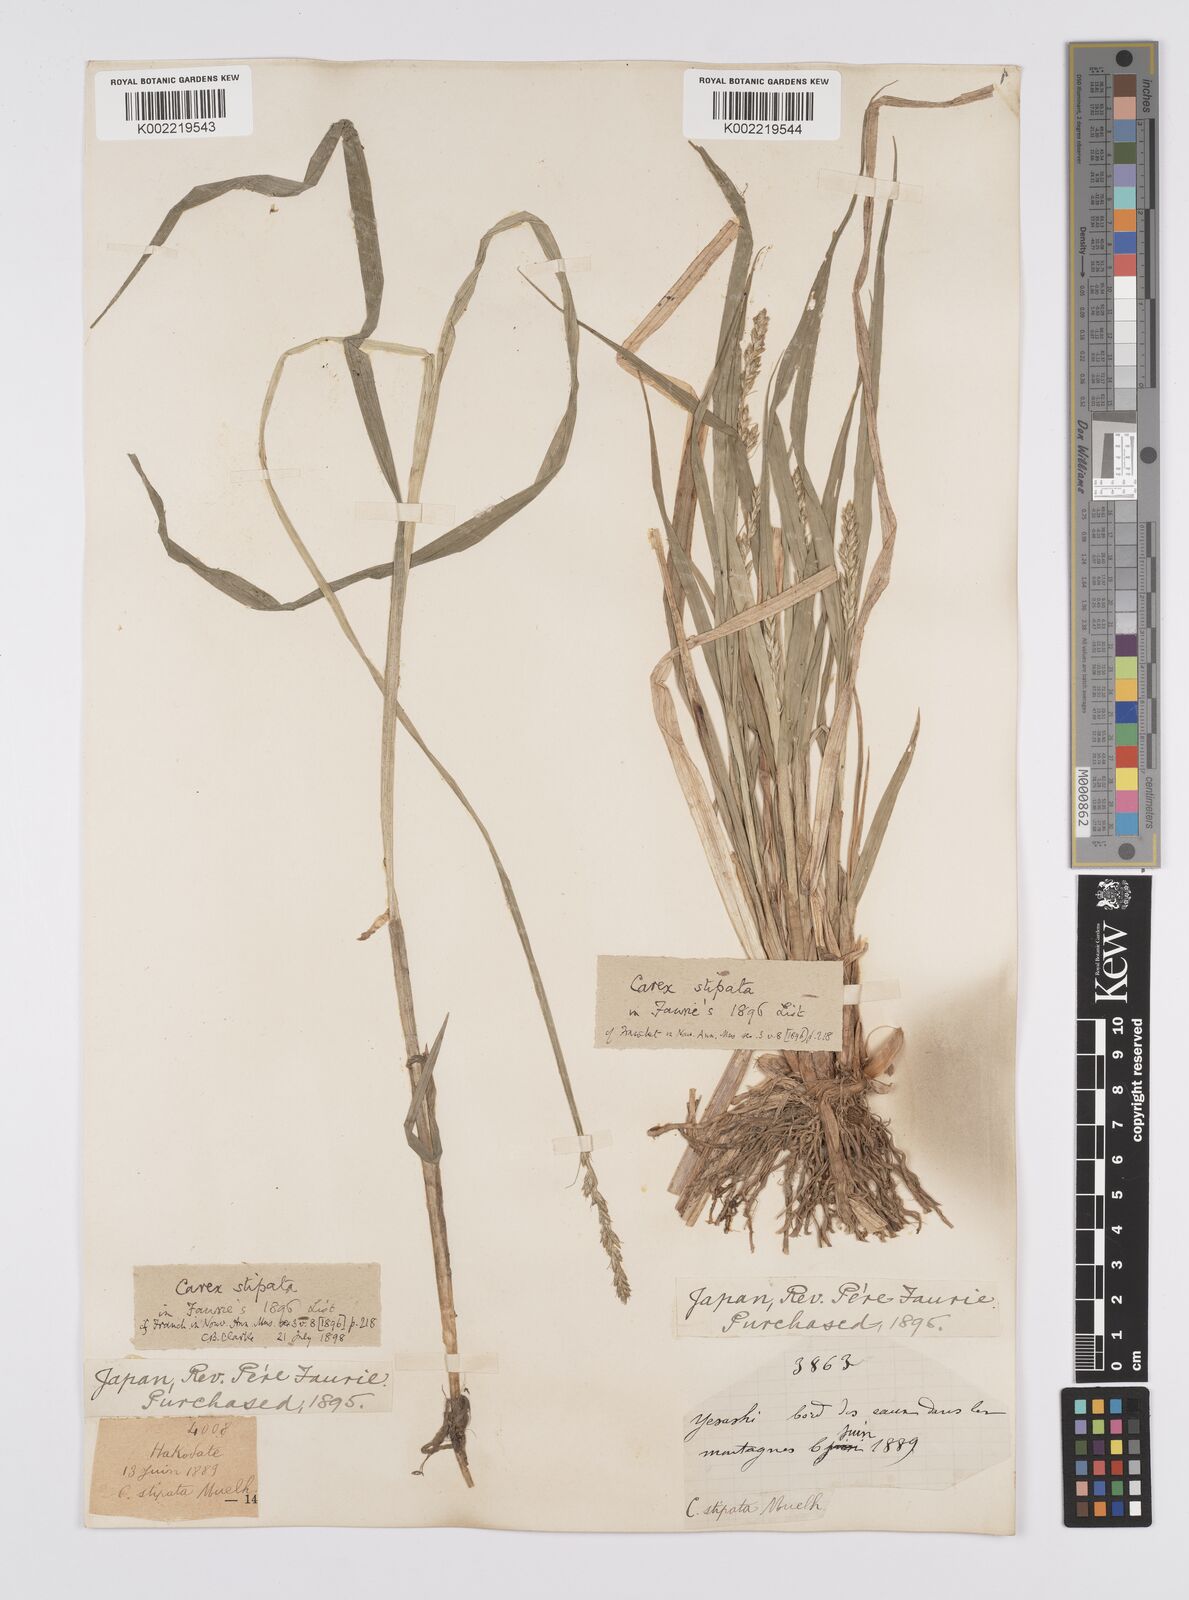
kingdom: Plantae
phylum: Tracheophyta
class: Liliopsida
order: Poales
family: Cyperaceae
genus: Carex
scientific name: Carex stipata
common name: Awl-fruited sedge
